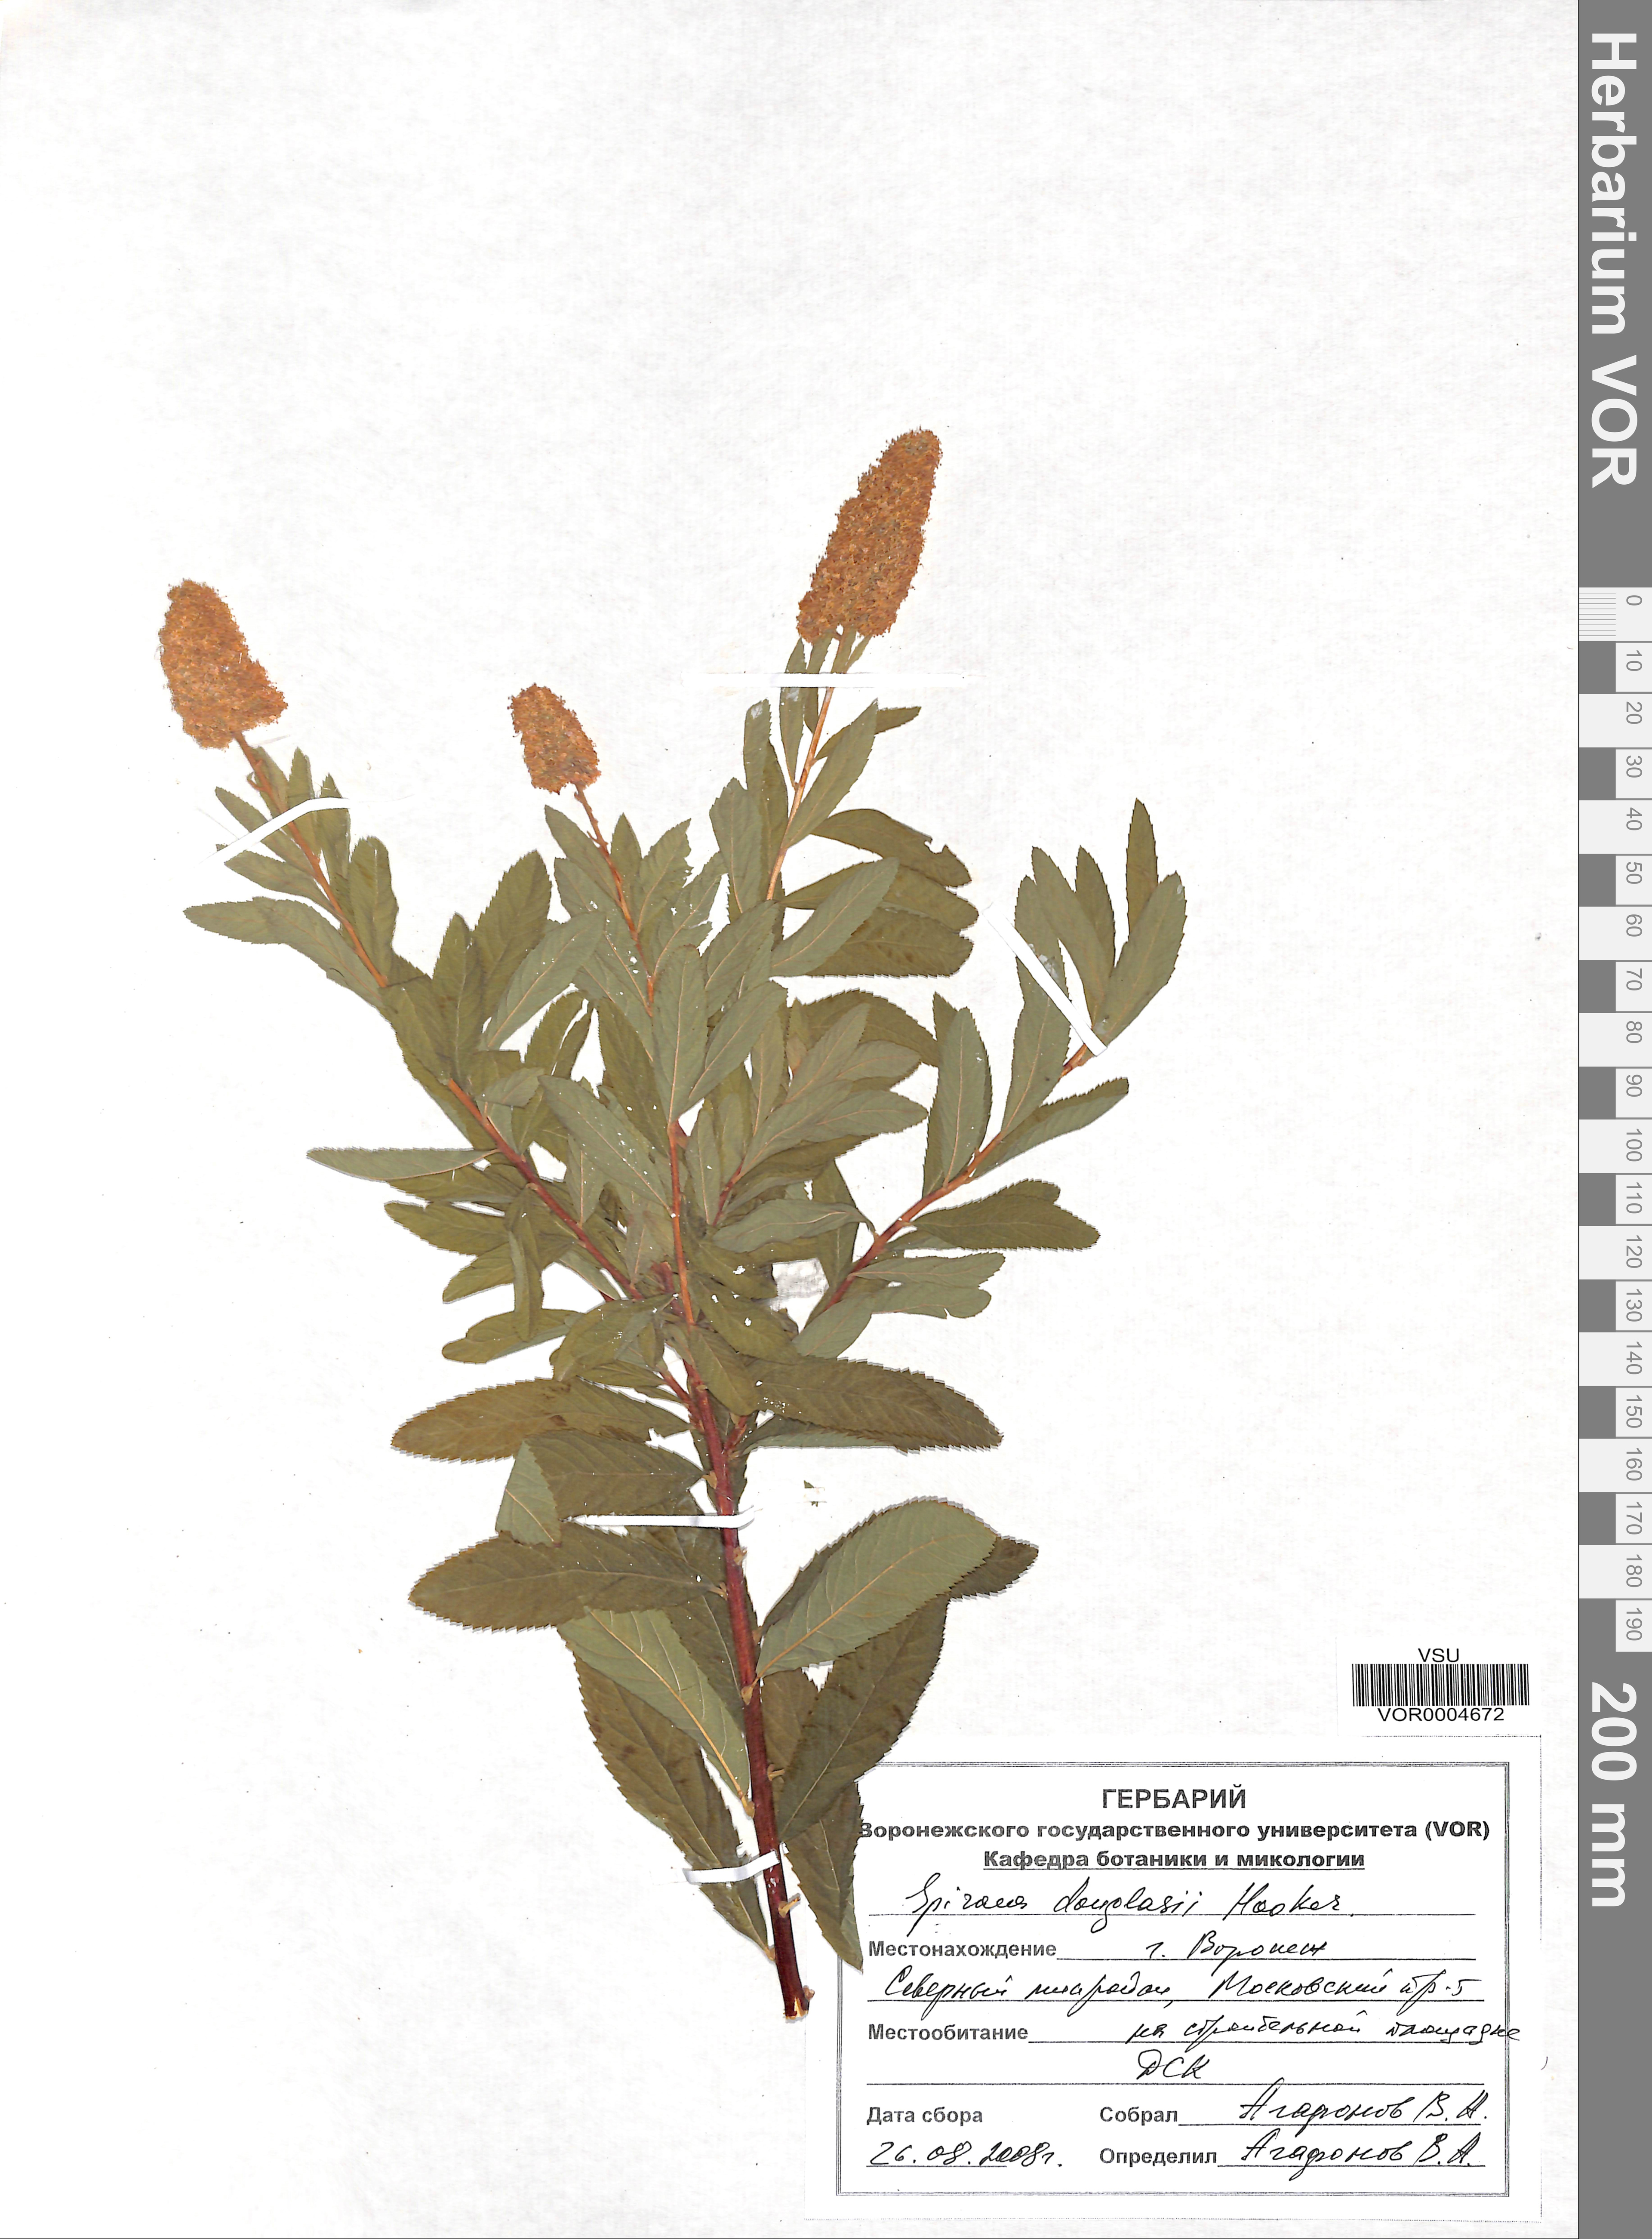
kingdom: Plantae
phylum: Tracheophyta
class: Magnoliopsida
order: Rosales
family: Rosaceae
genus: Spiraea
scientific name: Spiraea douglasii
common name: Steeplebush
